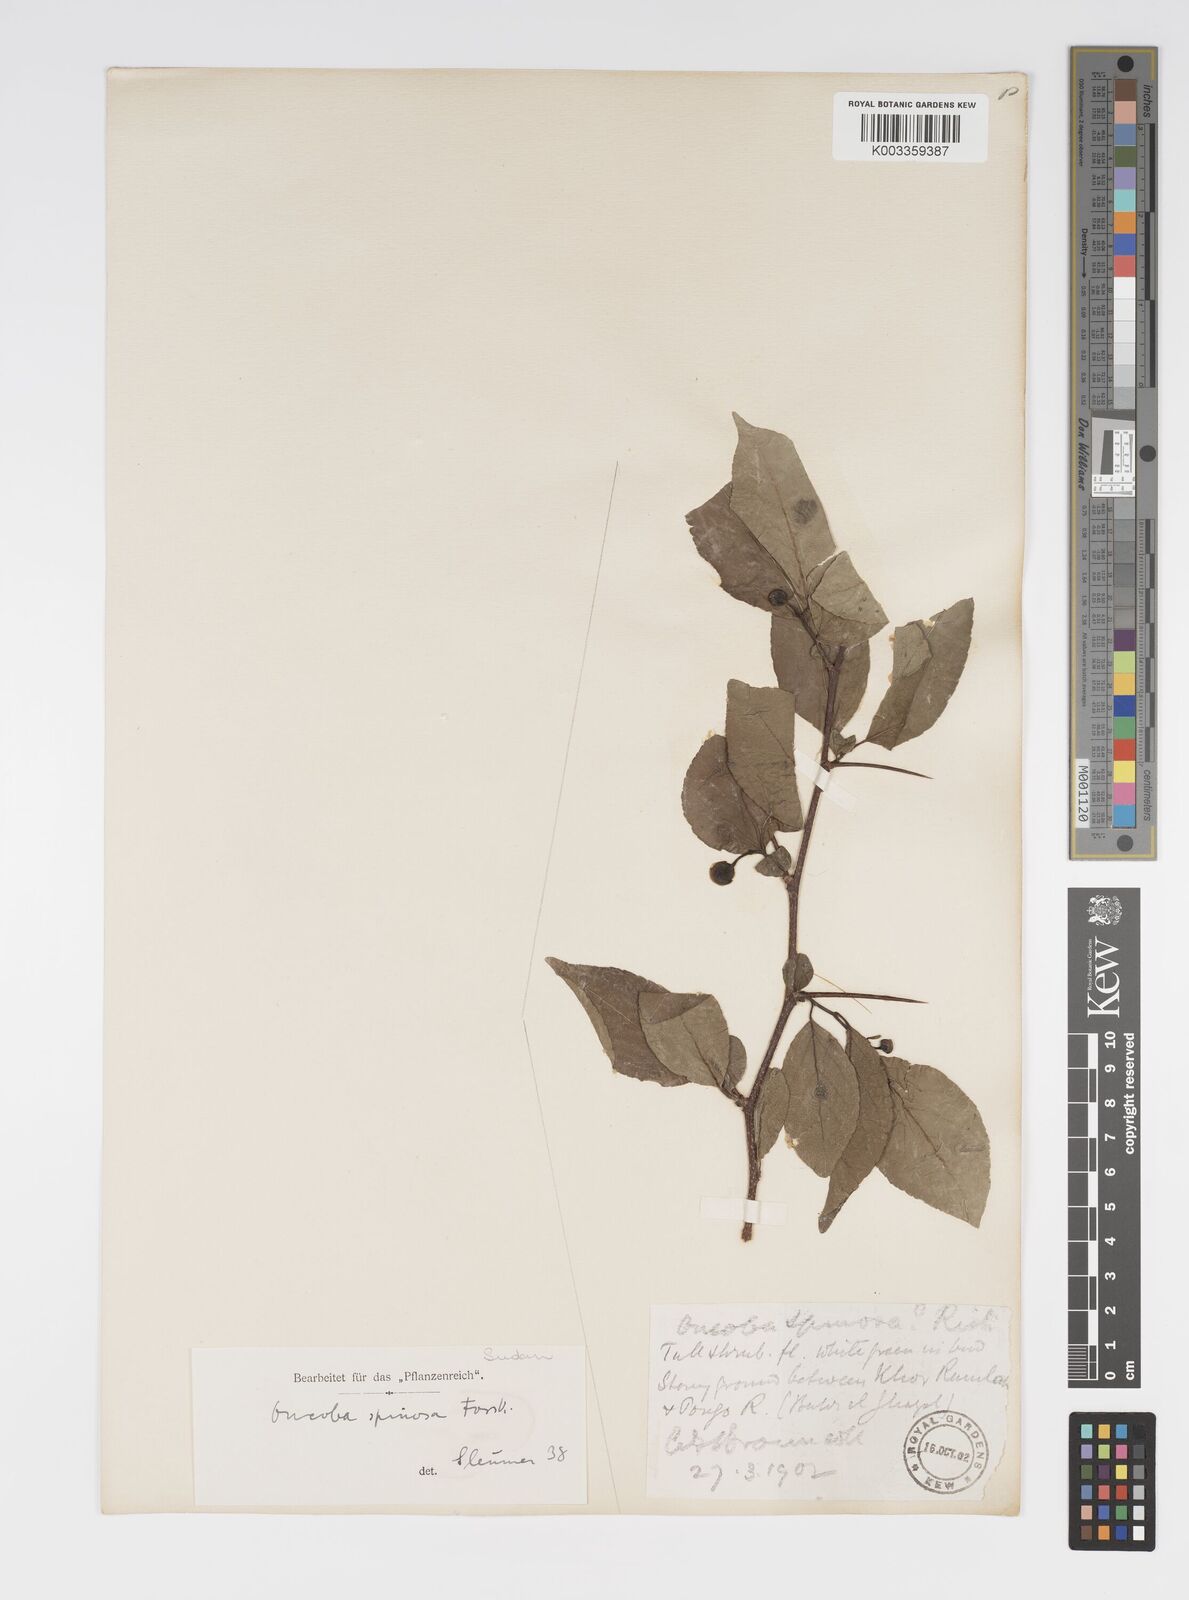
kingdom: Plantae
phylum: Tracheophyta
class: Magnoliopsida
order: Malpighiales
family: Salicaceae
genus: Oncoba
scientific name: Oncoba spinosa
